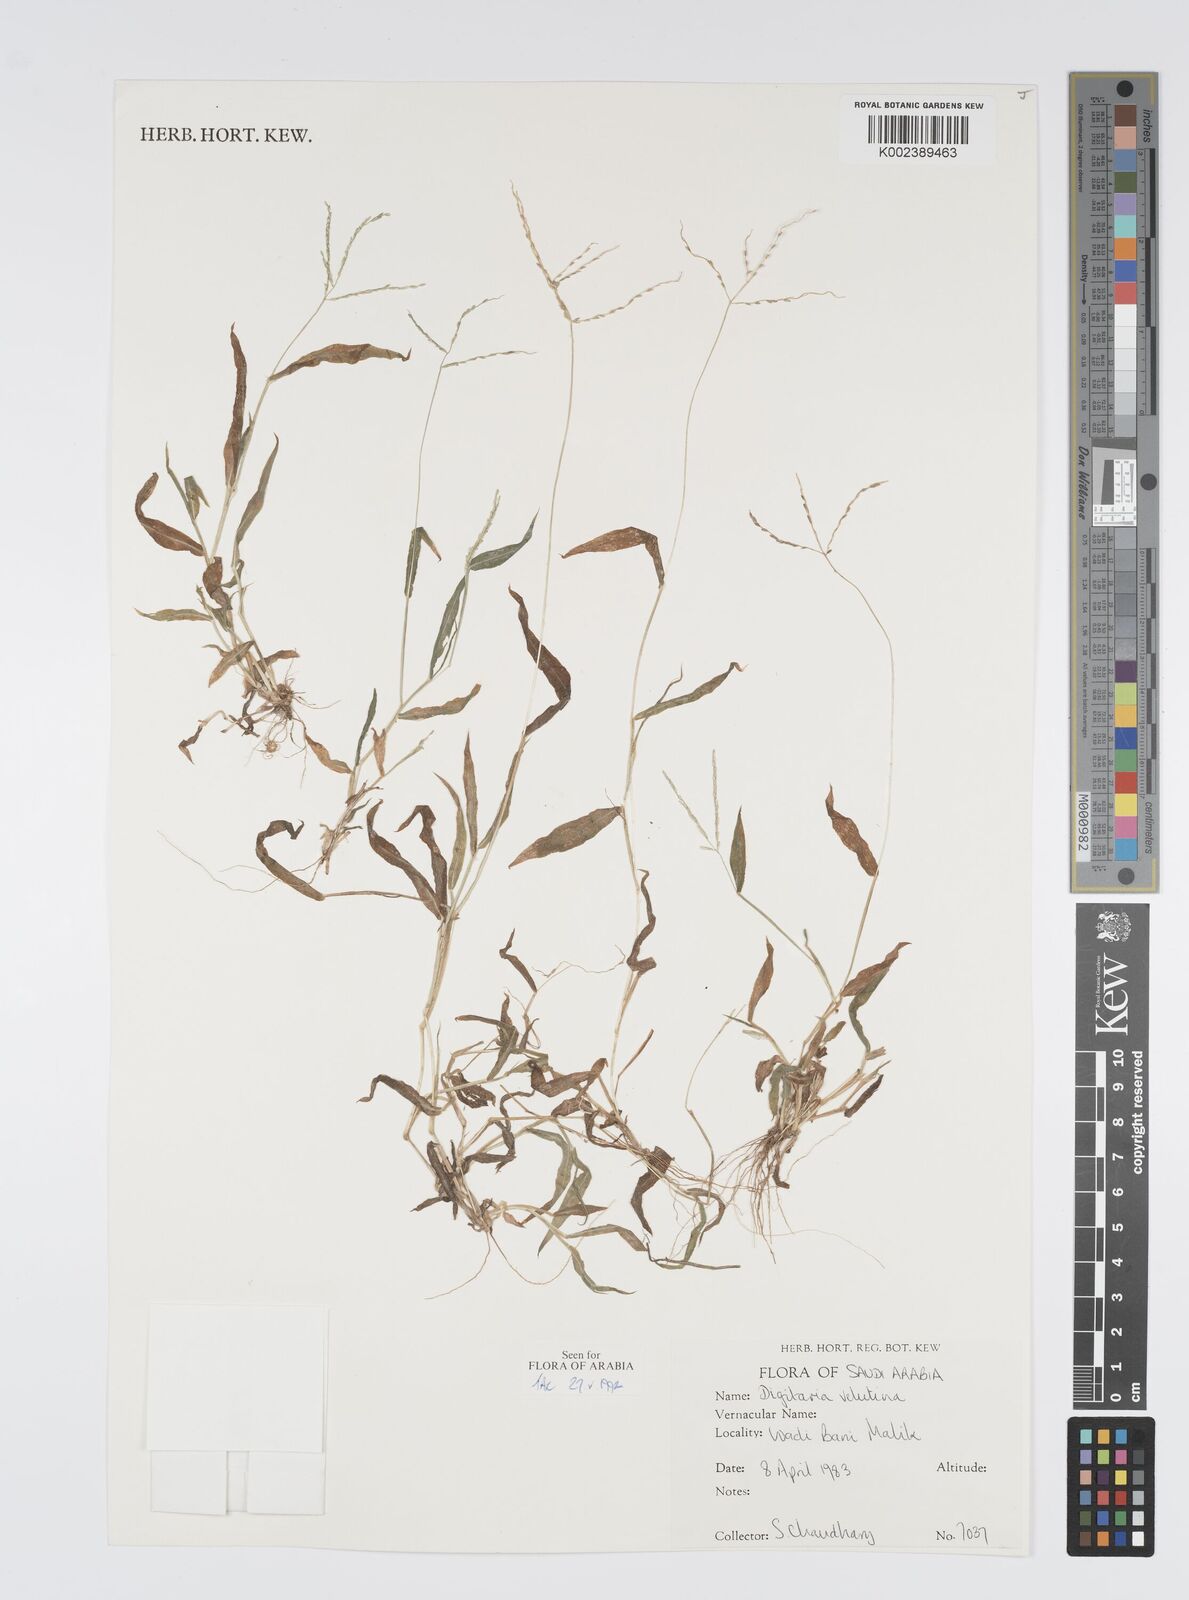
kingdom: Plantae
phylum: Tracheophyta
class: Liliopsida
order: Poales
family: Poaceae
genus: Digitaria
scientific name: Digitaria spec
